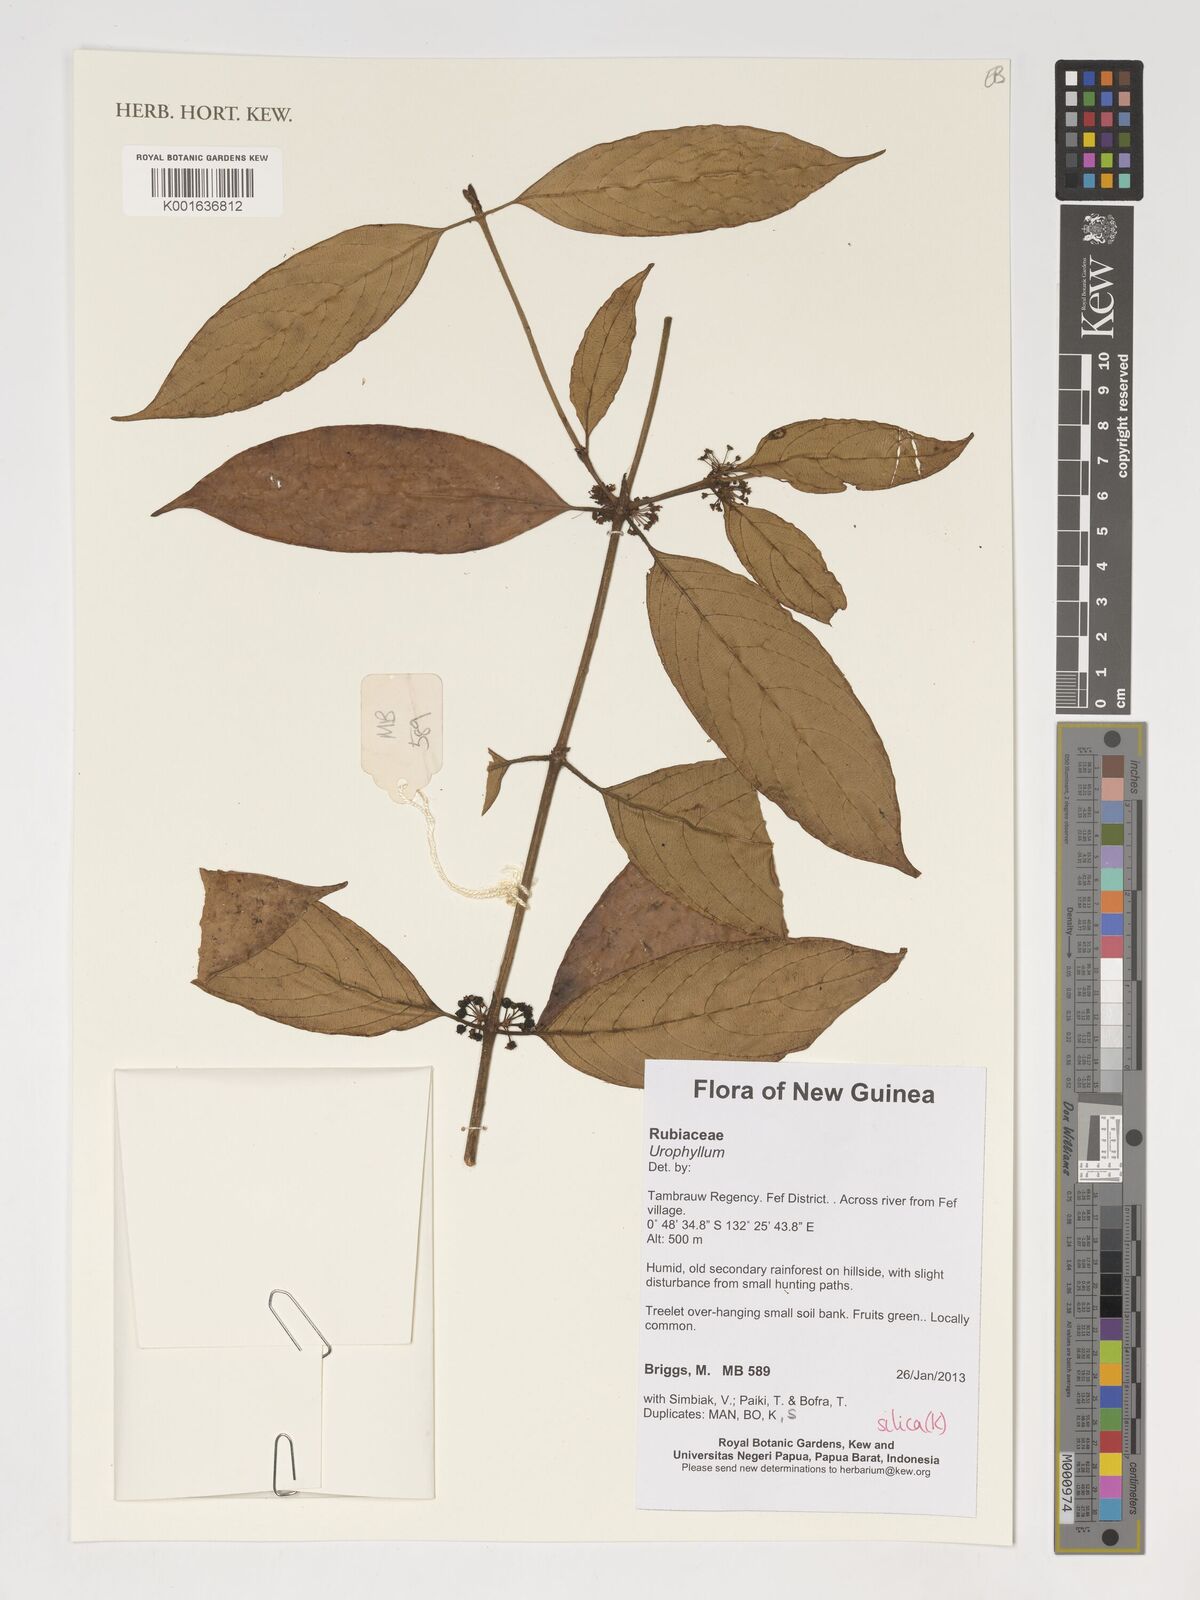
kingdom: Plantae
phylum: Tracheophyta
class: Magnoliopsida
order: Gentianales
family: Rubiaceae
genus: Urophyllum
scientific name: Urophyllum
